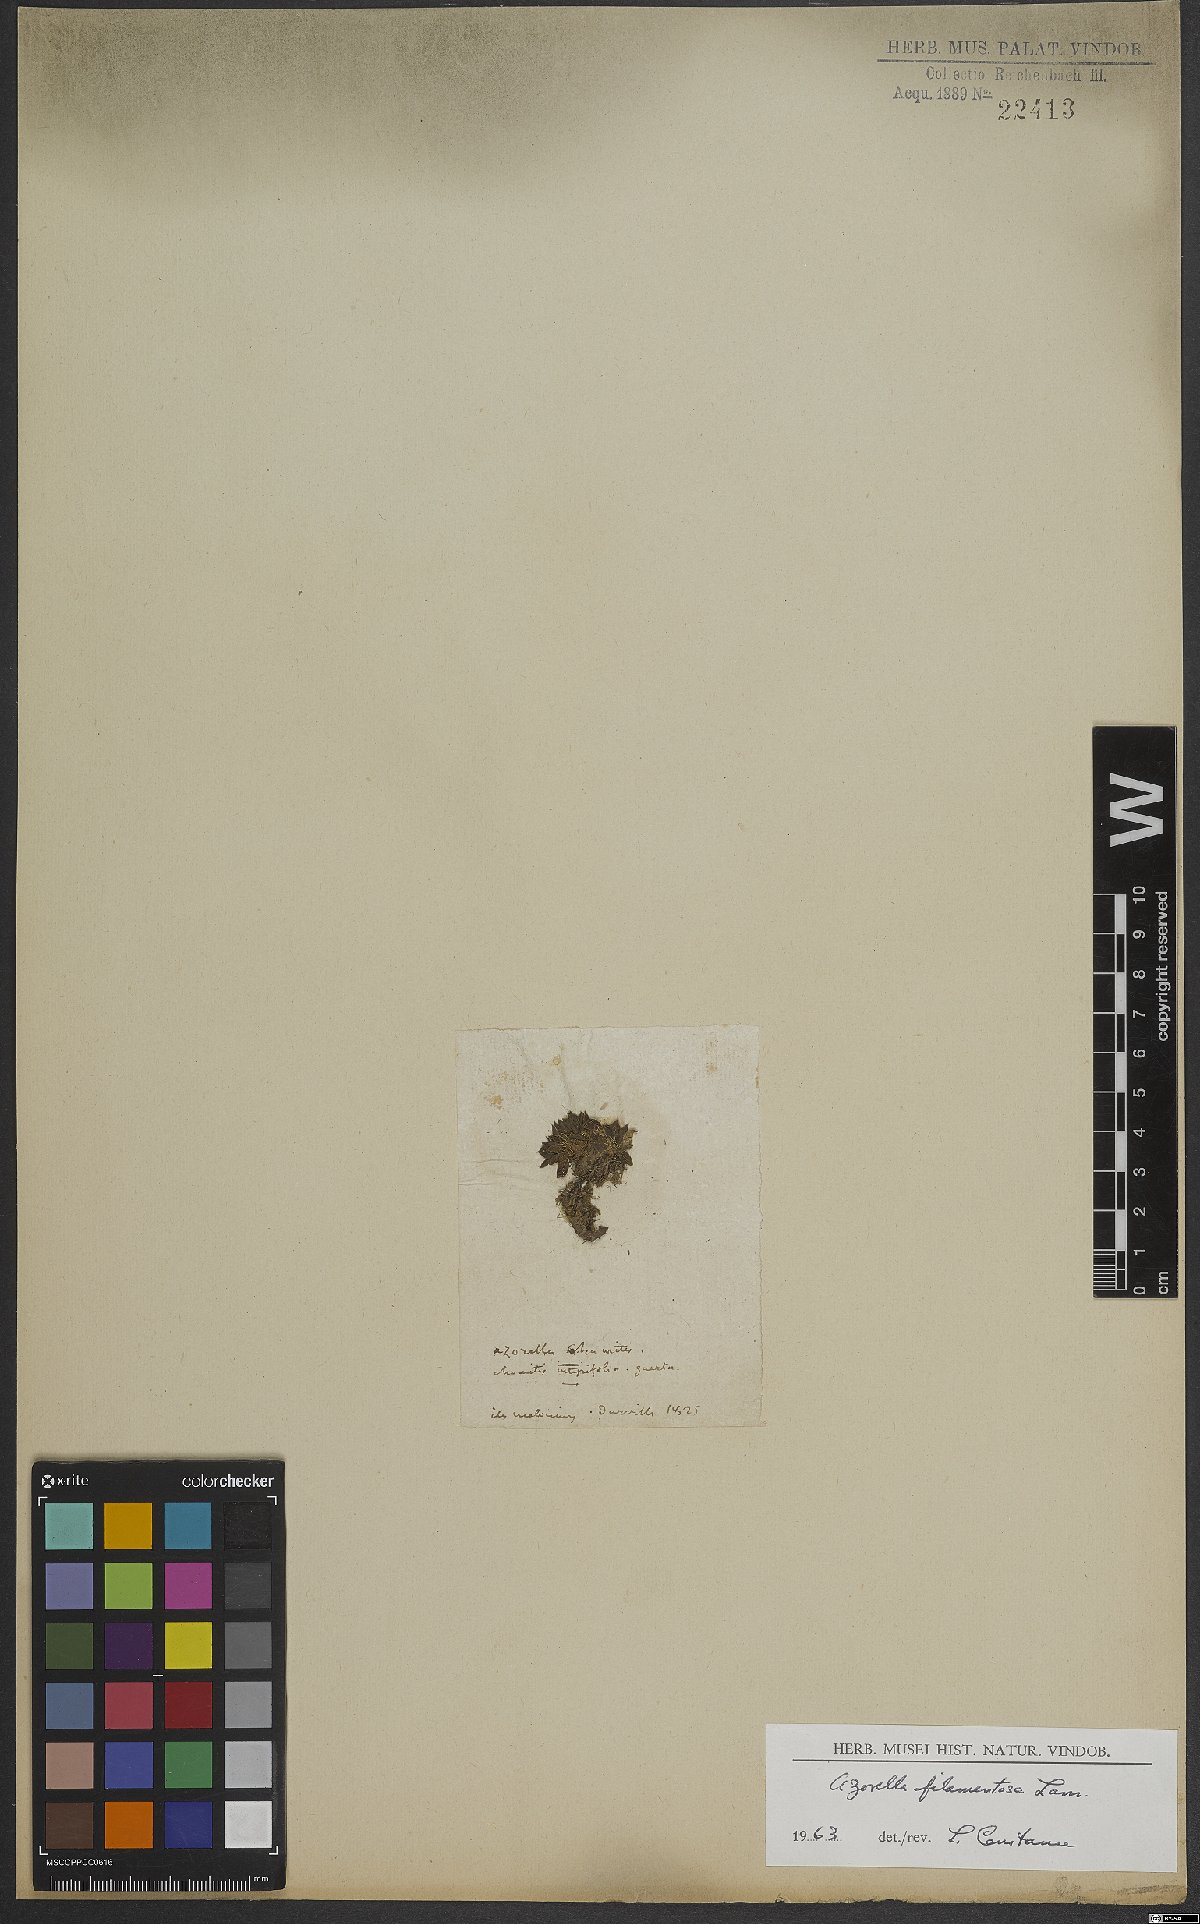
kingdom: Plantae
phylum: Tracheophyta
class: Magnoliopsida
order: Apiales
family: Apiaceae
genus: Azorella
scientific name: Azorella filamentosa
